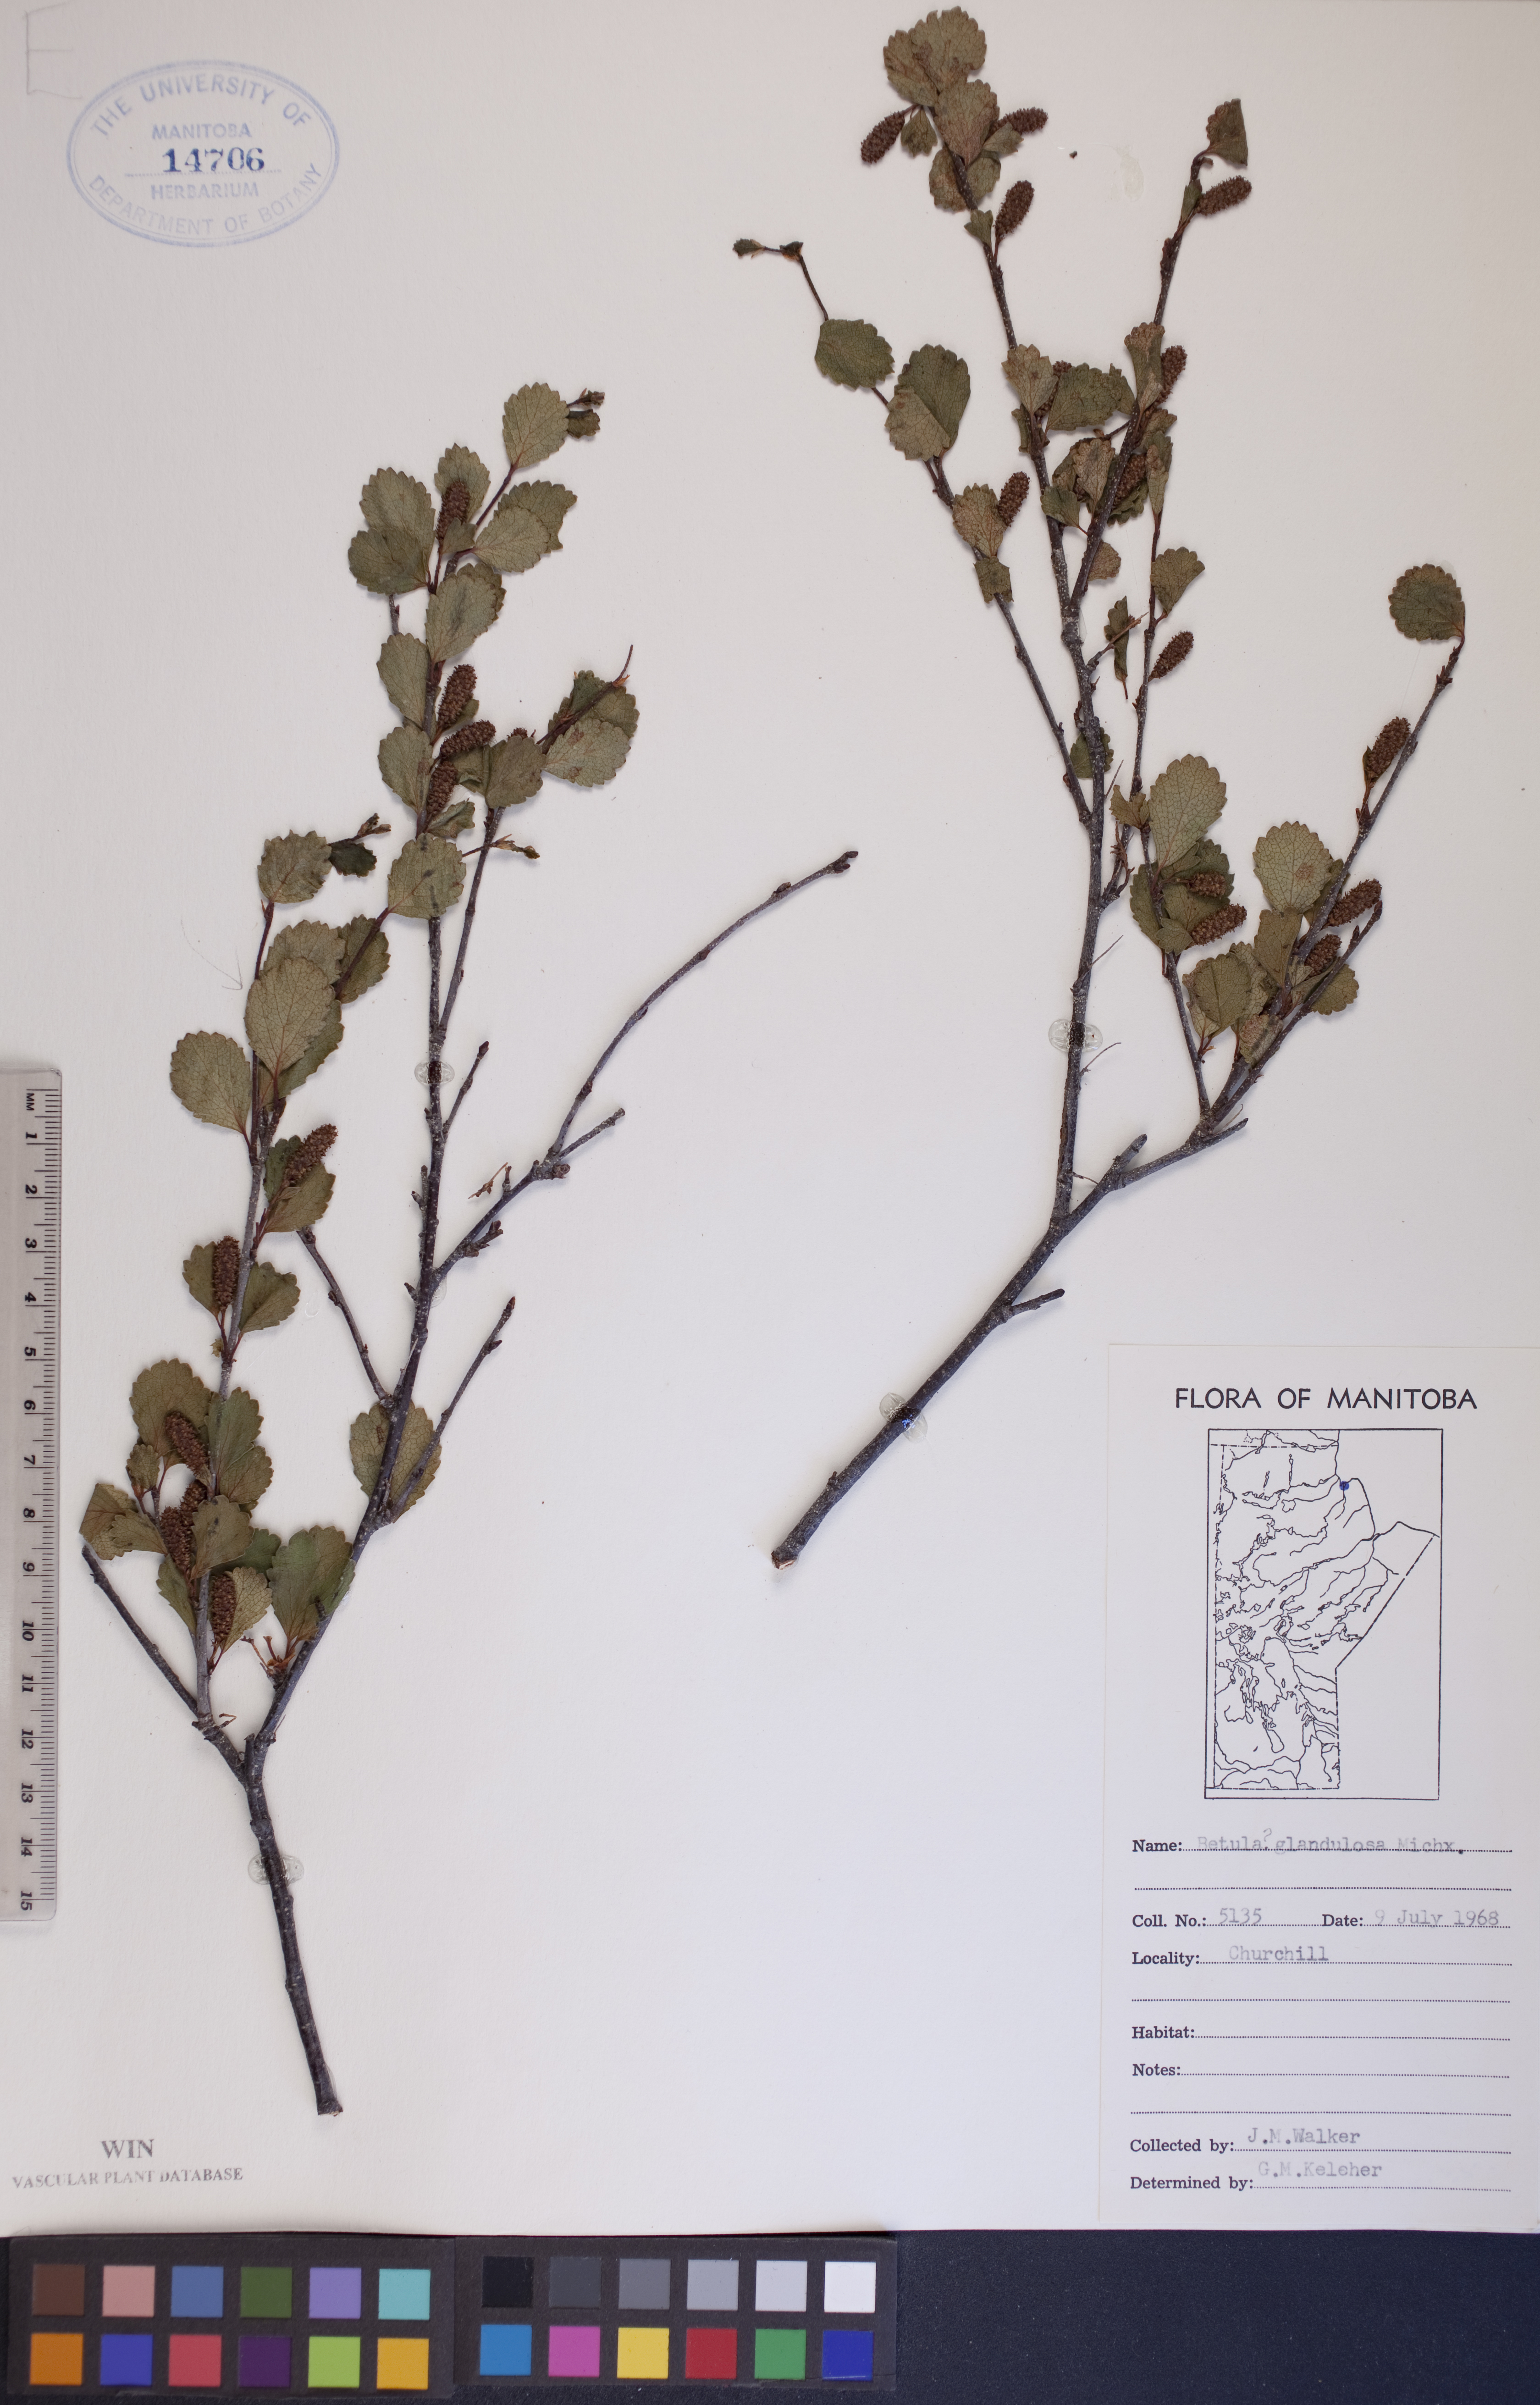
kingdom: Plantae
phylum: Tracheophyta
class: Magnoliopsida
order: Fagales
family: Betulaceae
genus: Betula
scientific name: Betula glandulosa
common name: Dwarf birch
